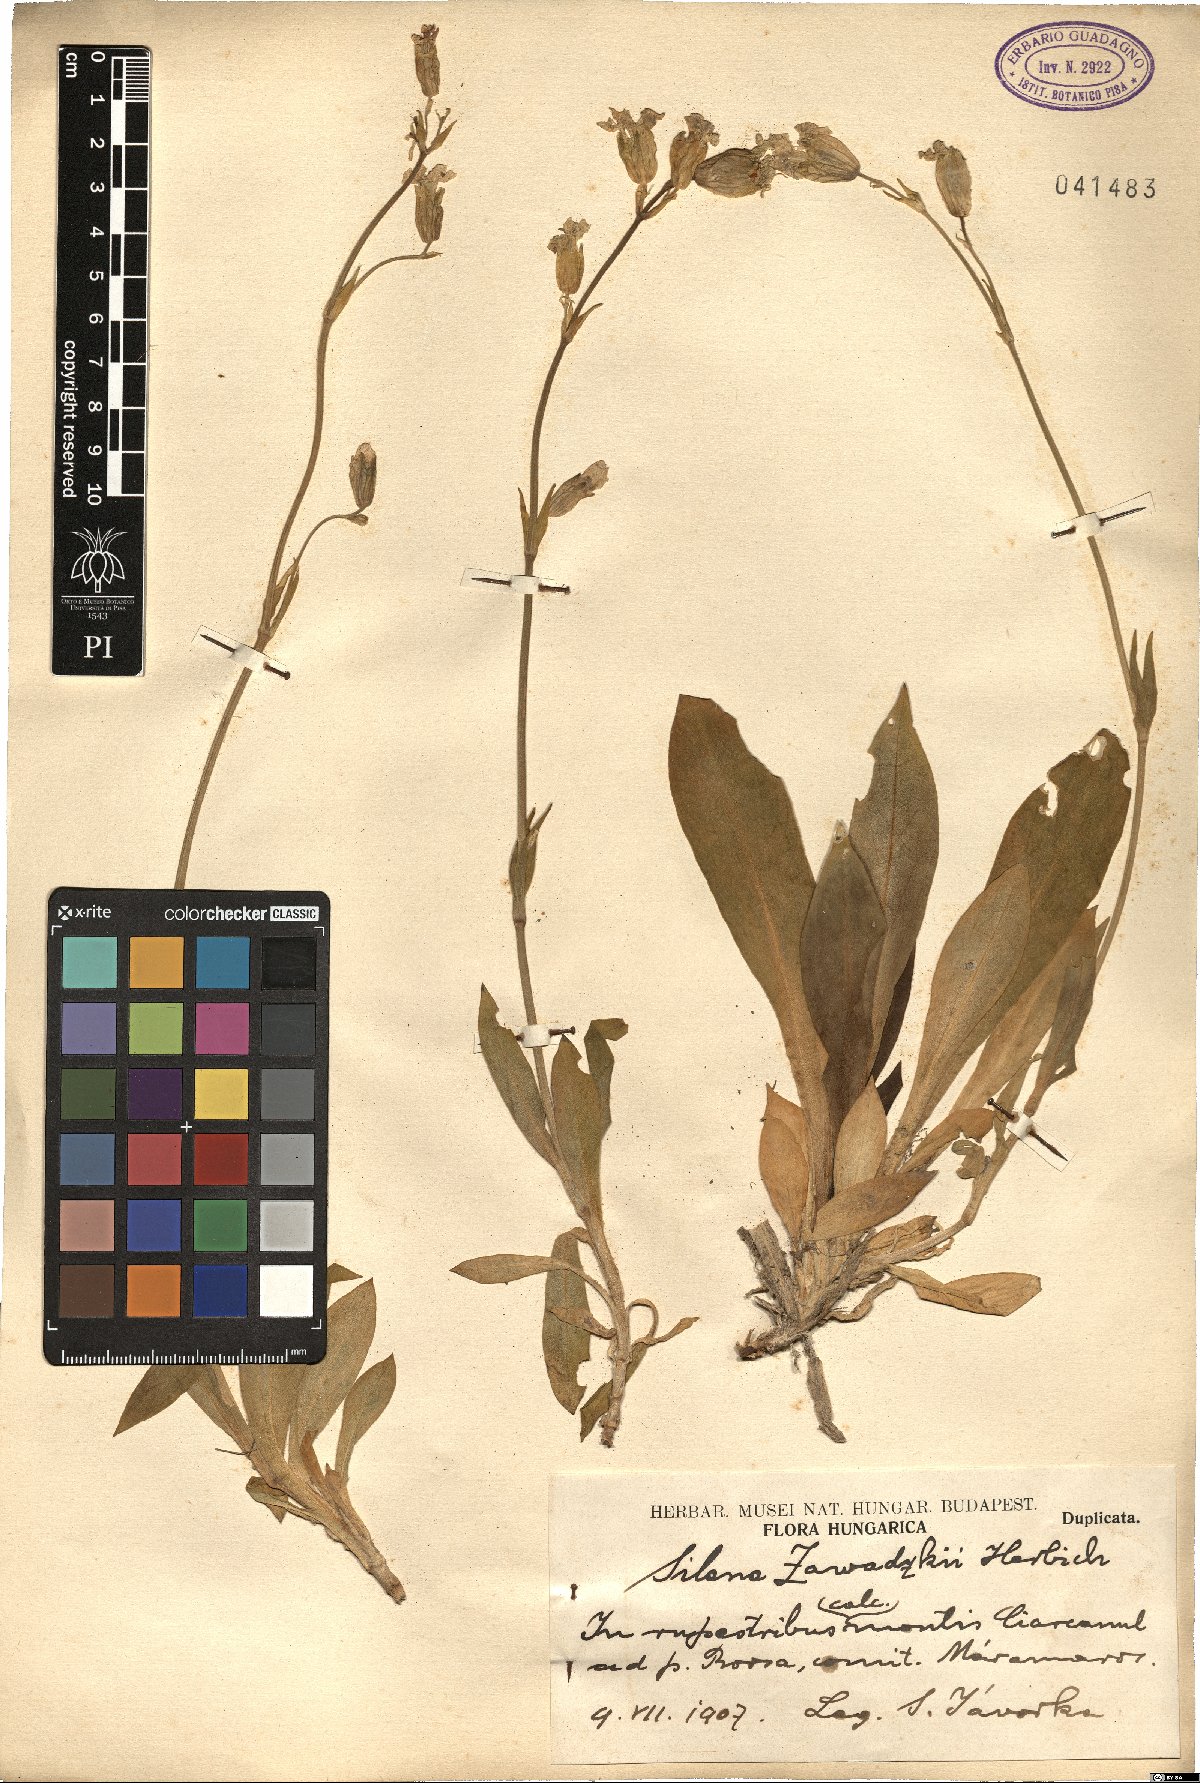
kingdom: Plantae
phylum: Tracheophyta
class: Magnoliopsida
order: Caryophyllales
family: Caryophyllaceae
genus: Silene
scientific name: Silene zawadzkii
